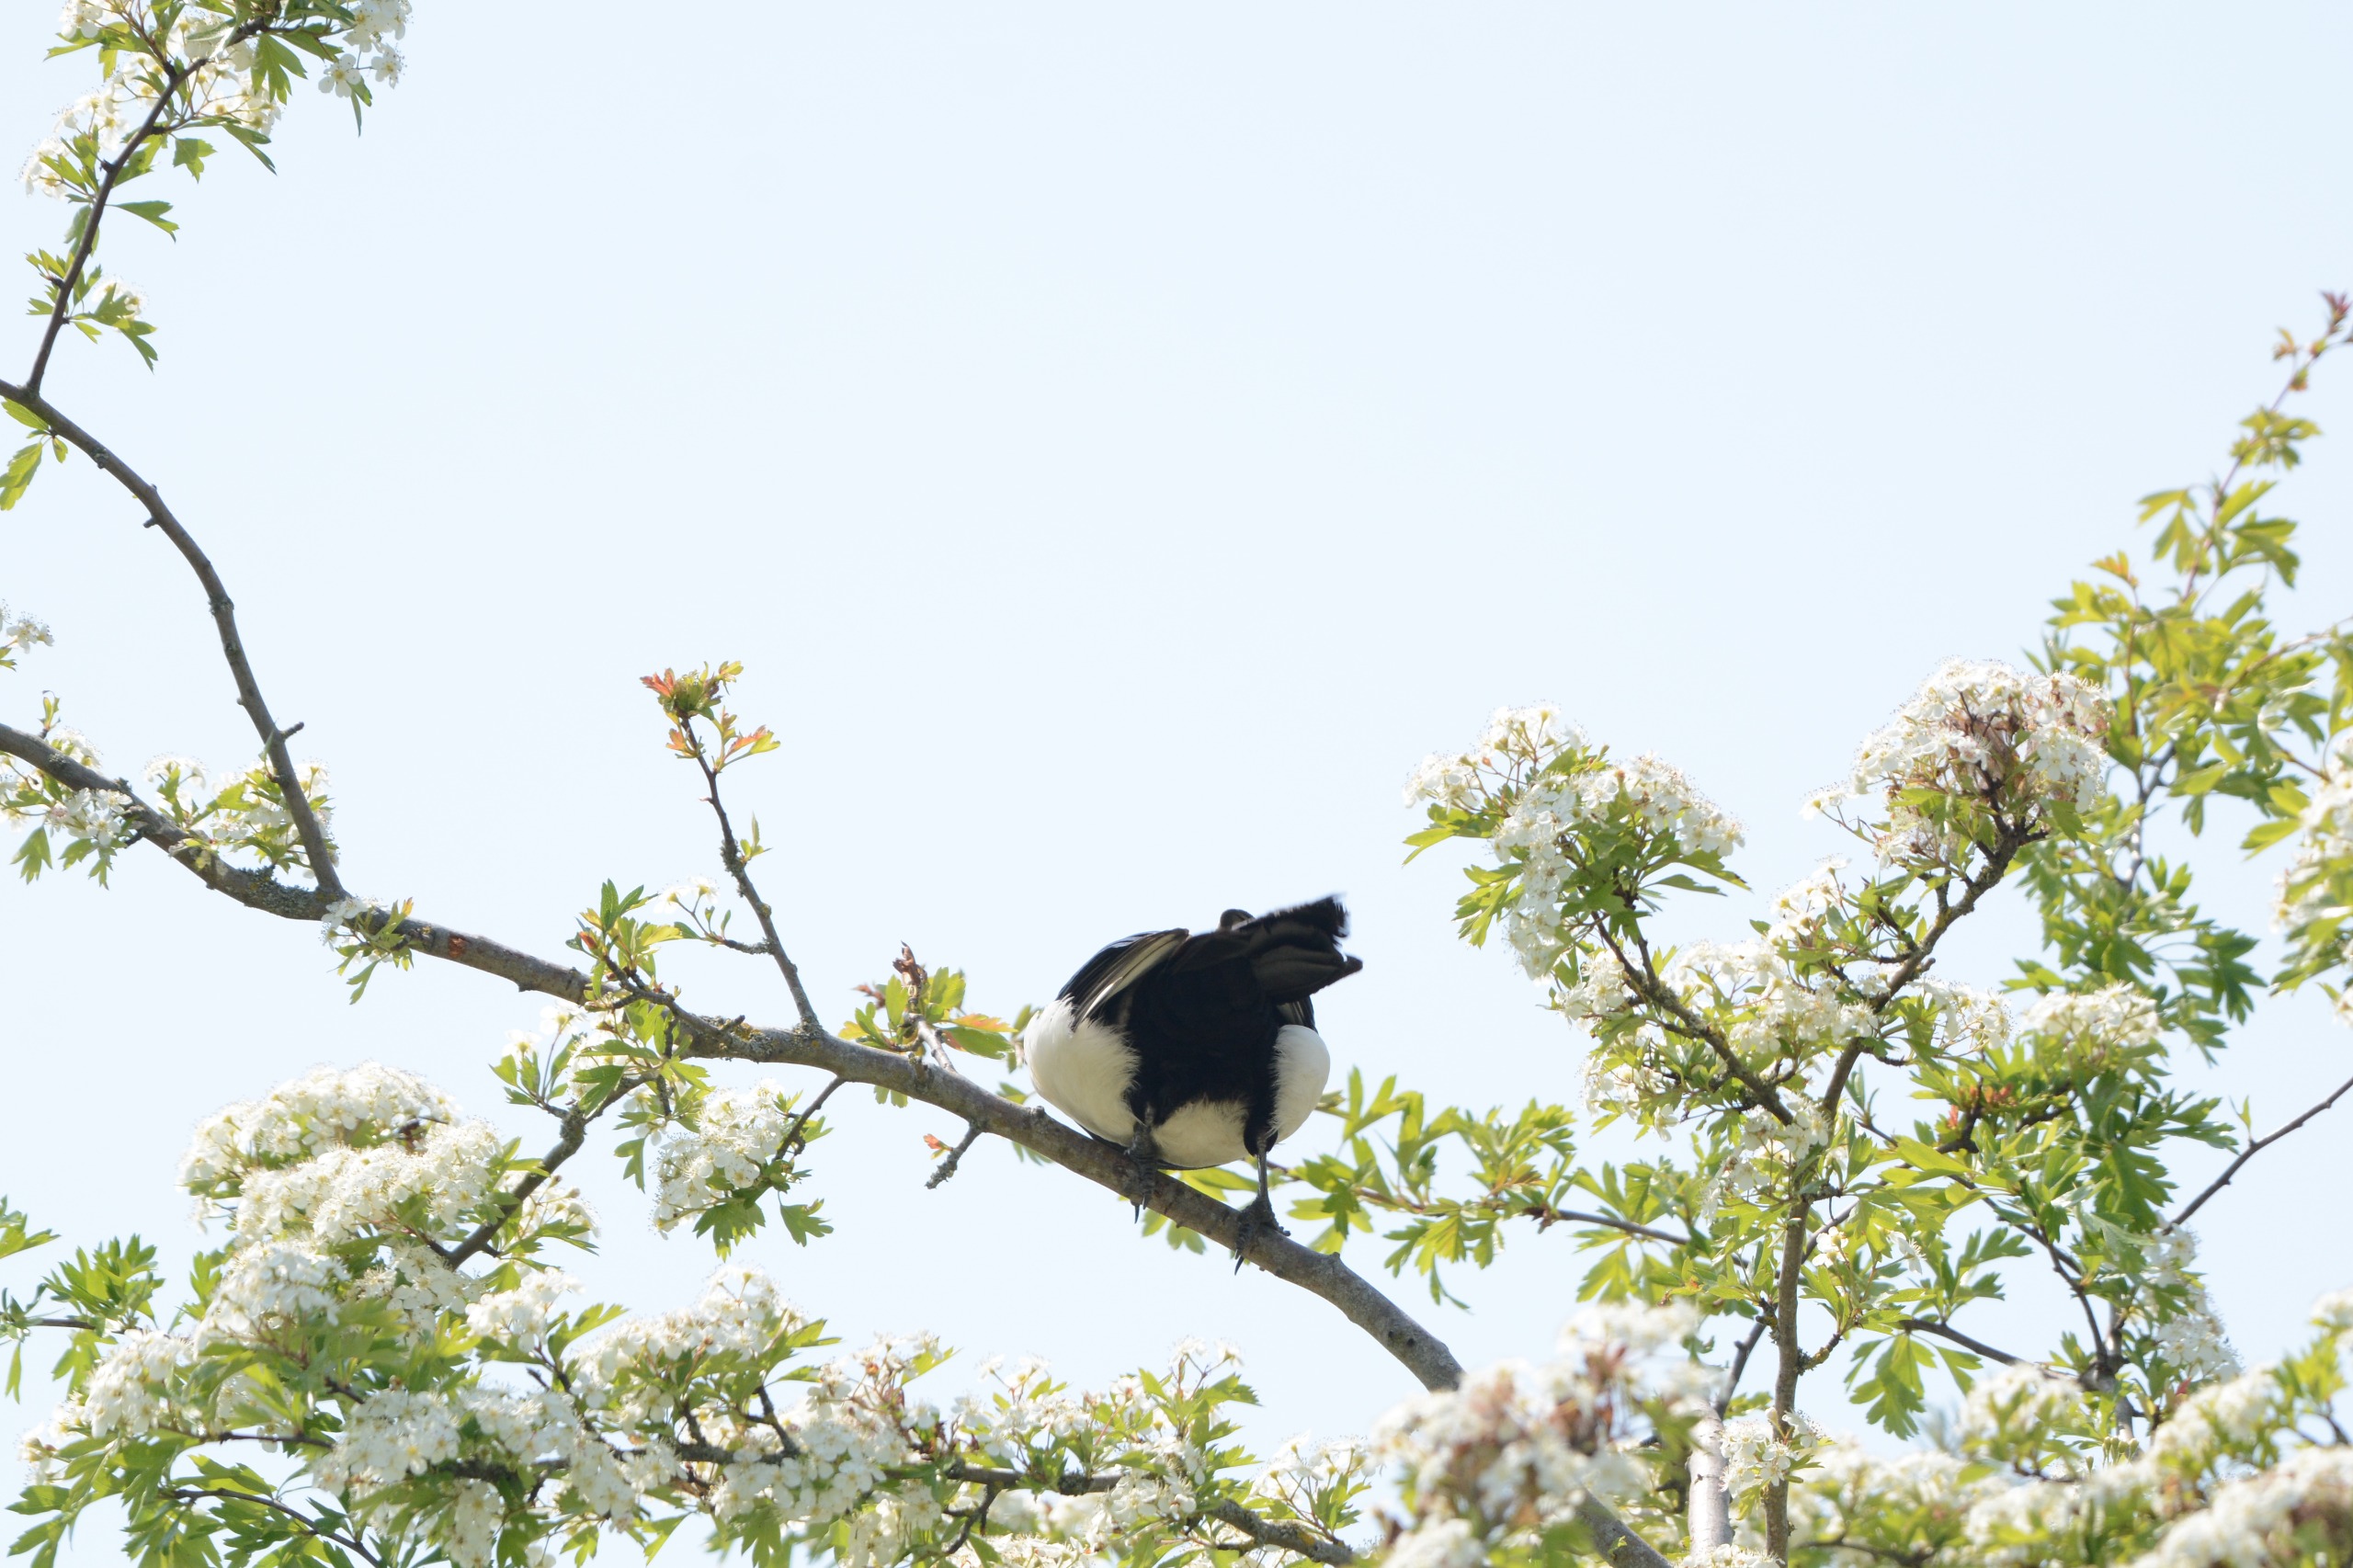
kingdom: Animalia
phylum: Chordata
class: Aves
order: Passeriformes
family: Corvidae
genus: Pica
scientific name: Pica pica
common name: Husskade
